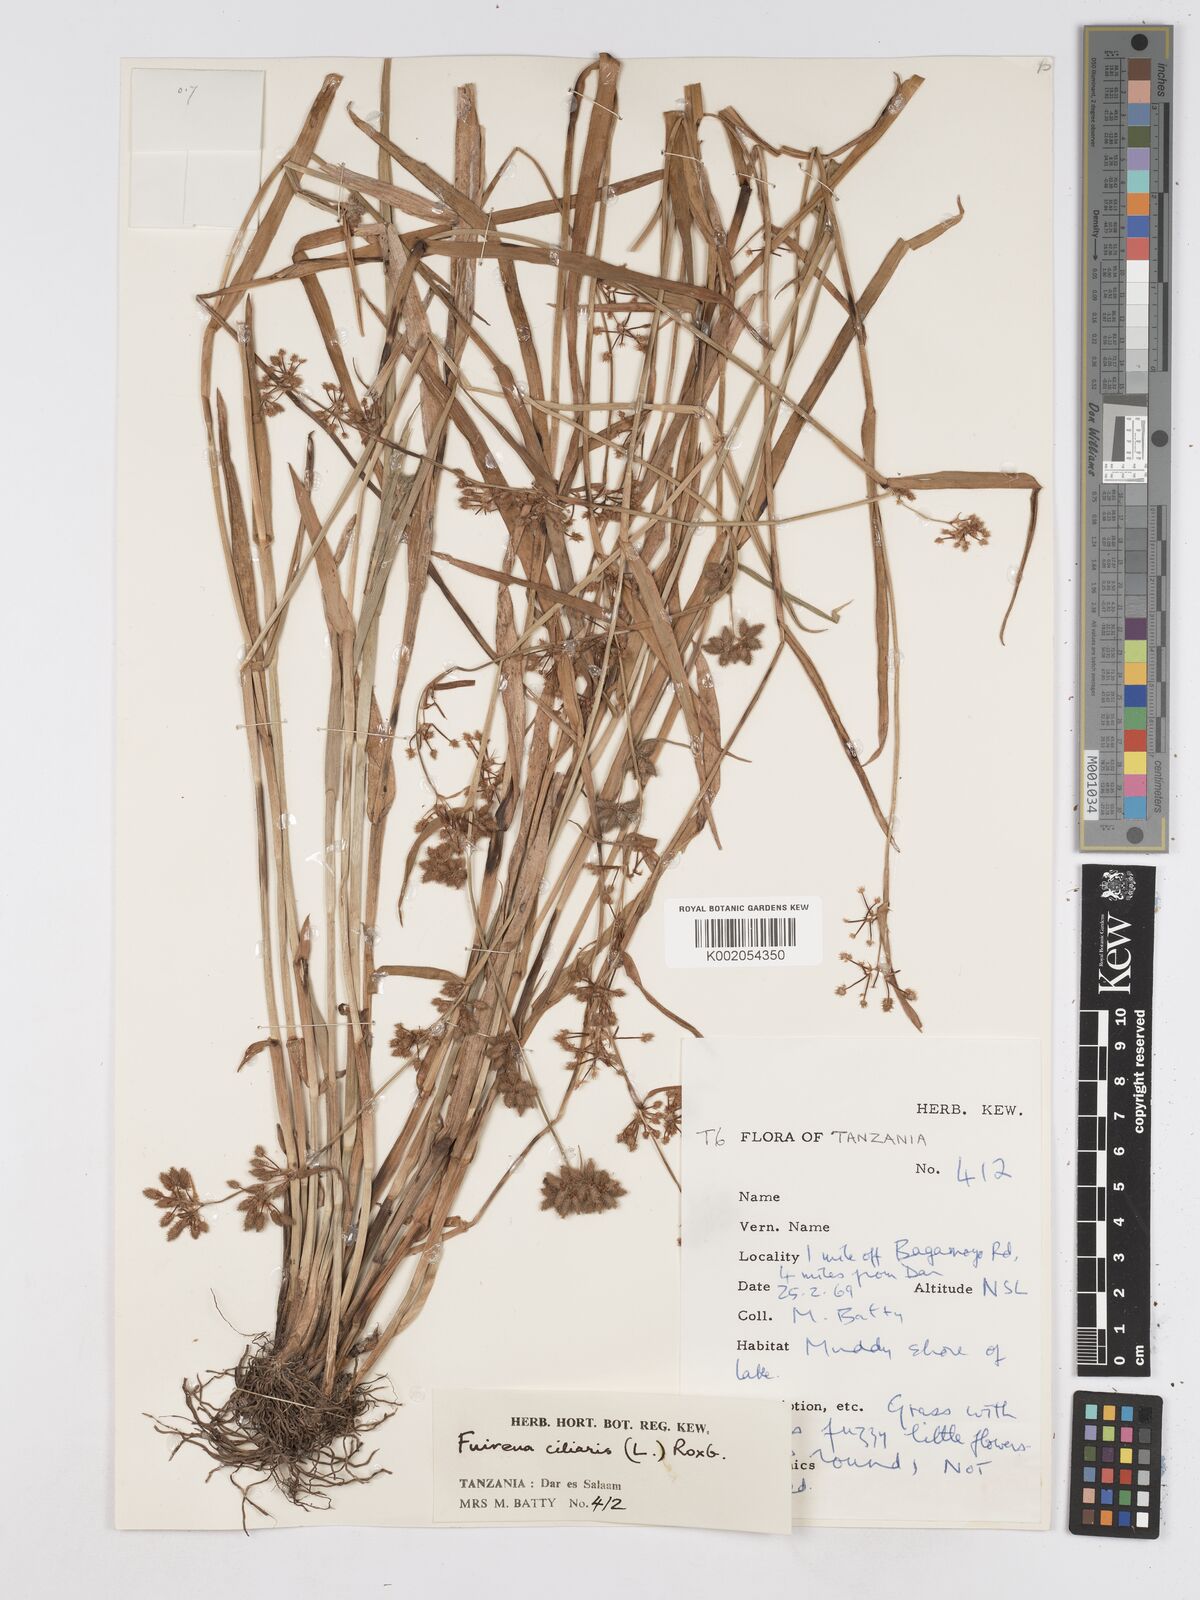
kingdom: Plantae
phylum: Tracheophyta
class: Liliopsida
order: Poales
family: Cyperaceae
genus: Fuirena
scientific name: Fuirena ciliaris
